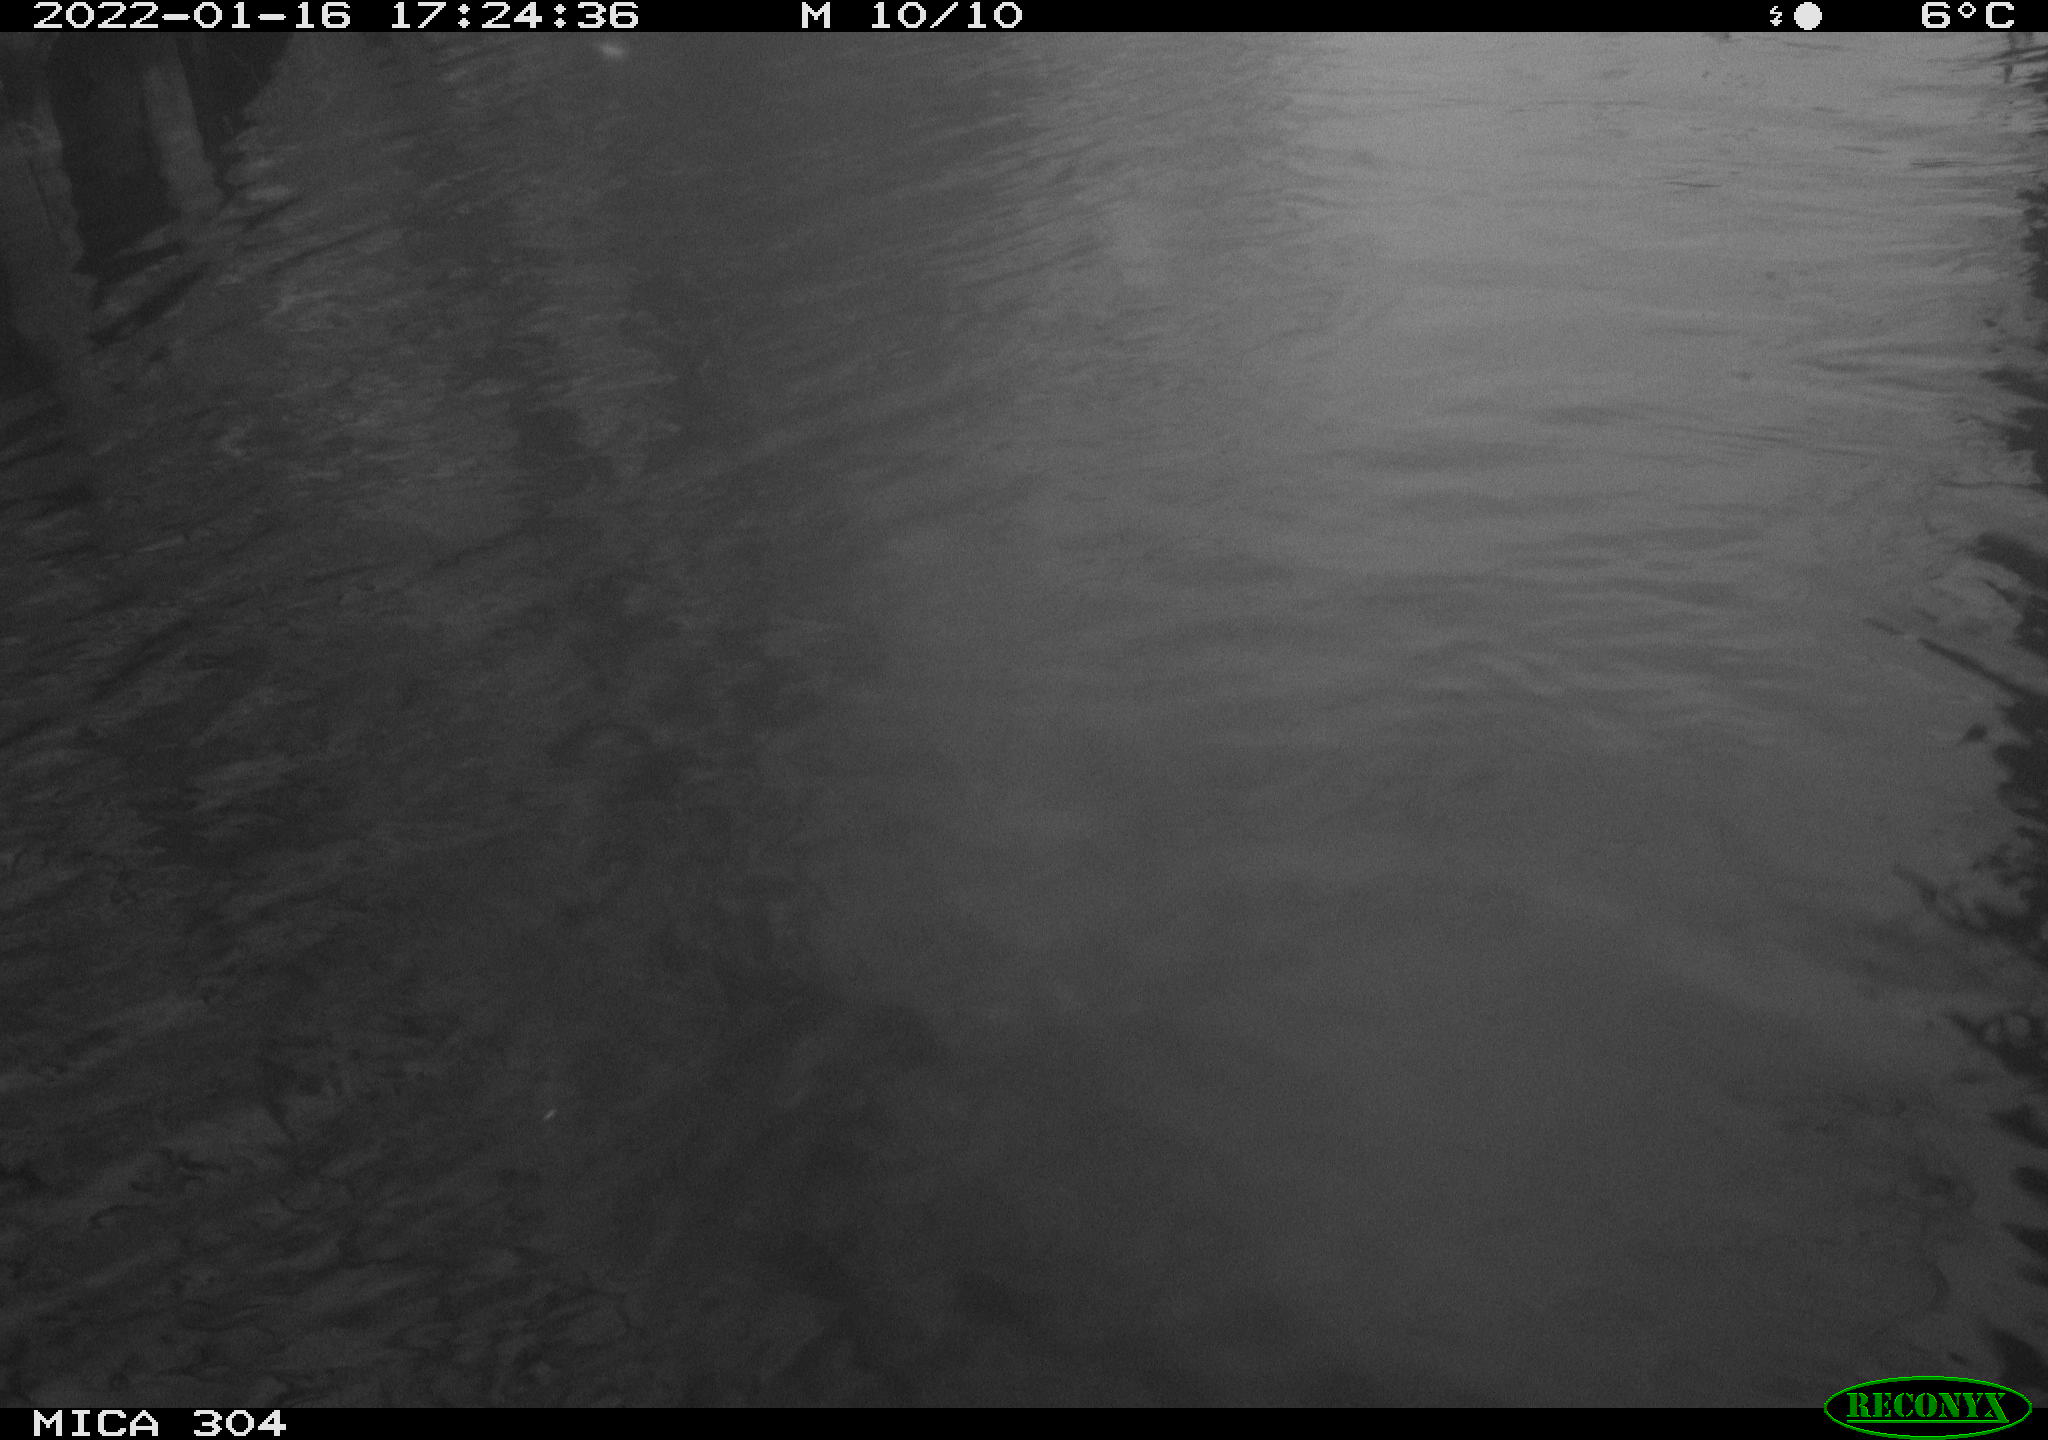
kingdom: Animalia
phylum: Chordata
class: Mammalia
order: Rodentia
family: Cricetidae
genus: Ondatra
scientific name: Ondatra zibethicus
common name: Muskrat
